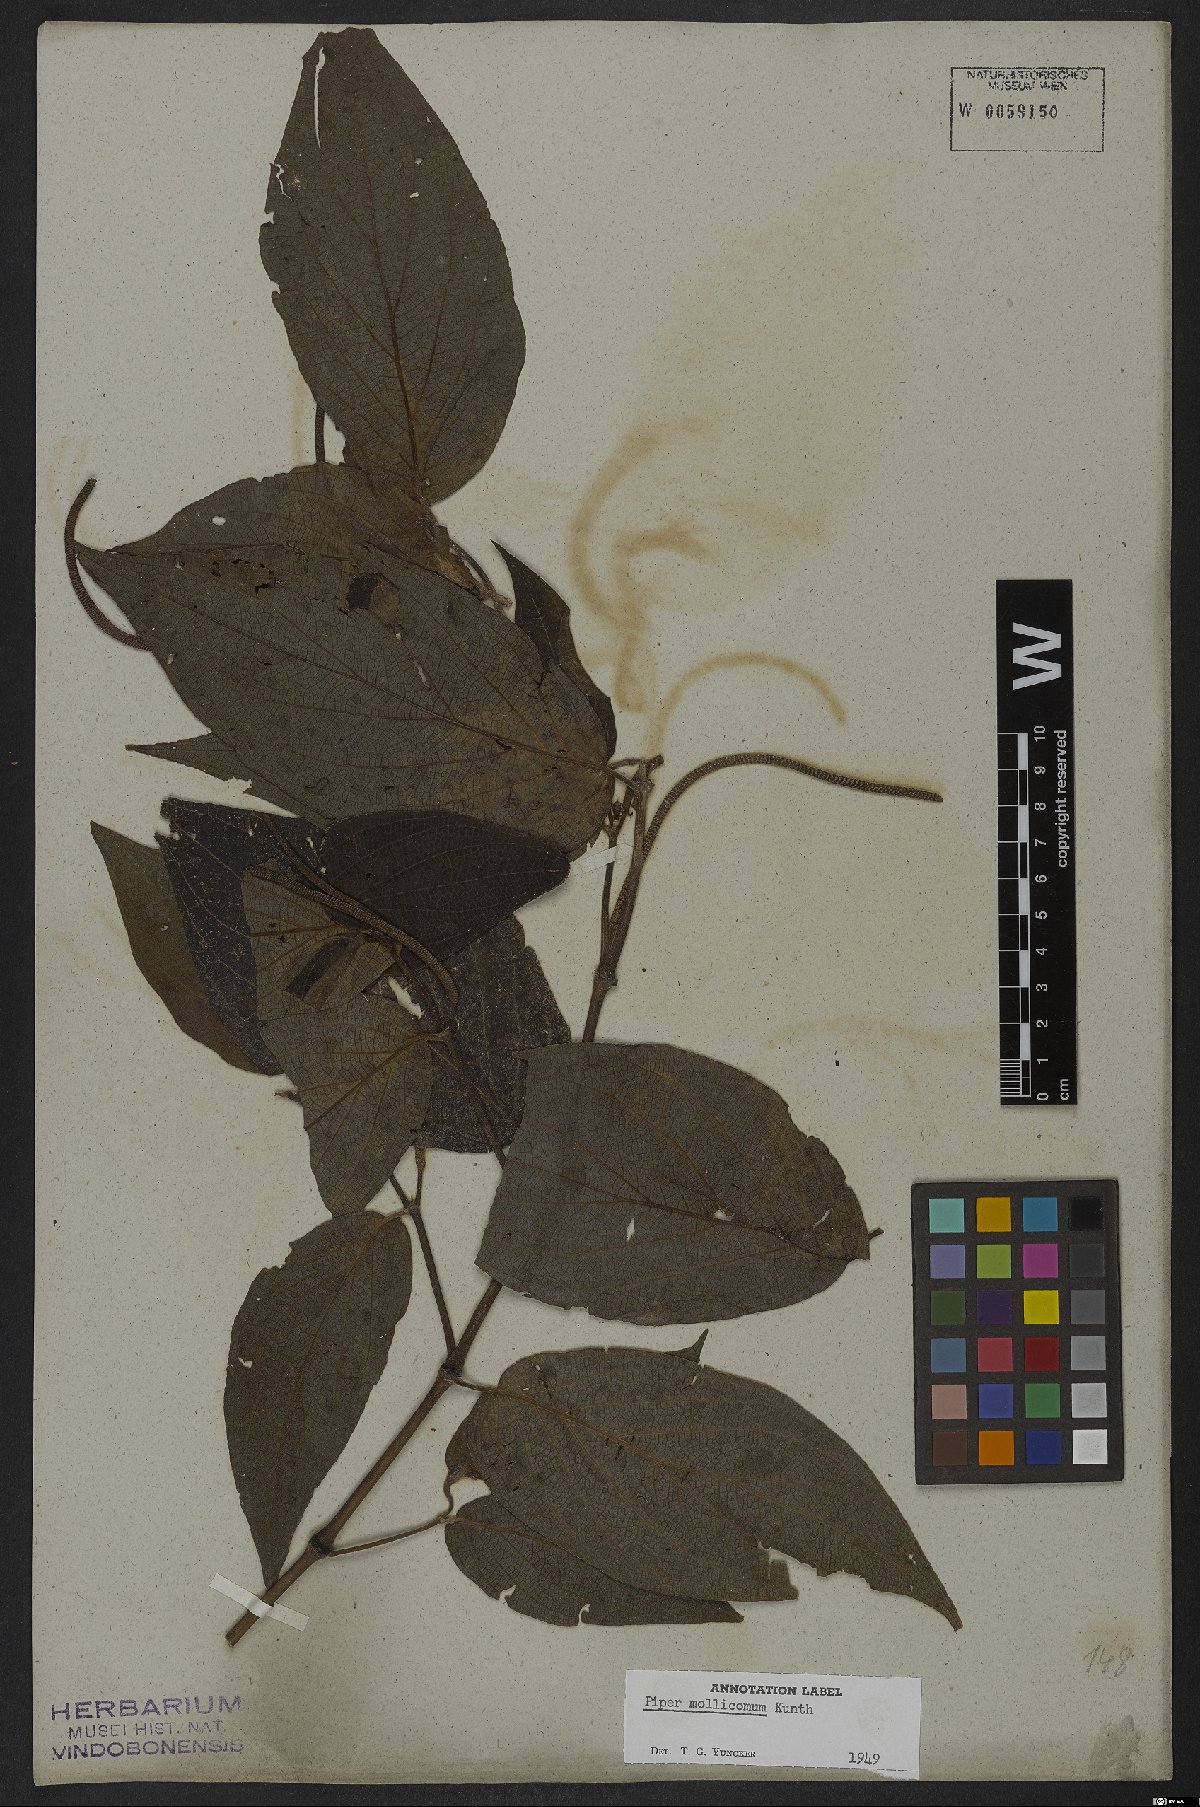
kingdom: Plantae
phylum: Tracheophyta
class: Magnoliopsida
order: Piperales
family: Piperaceae
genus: Piper
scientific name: Piper mollicomum
